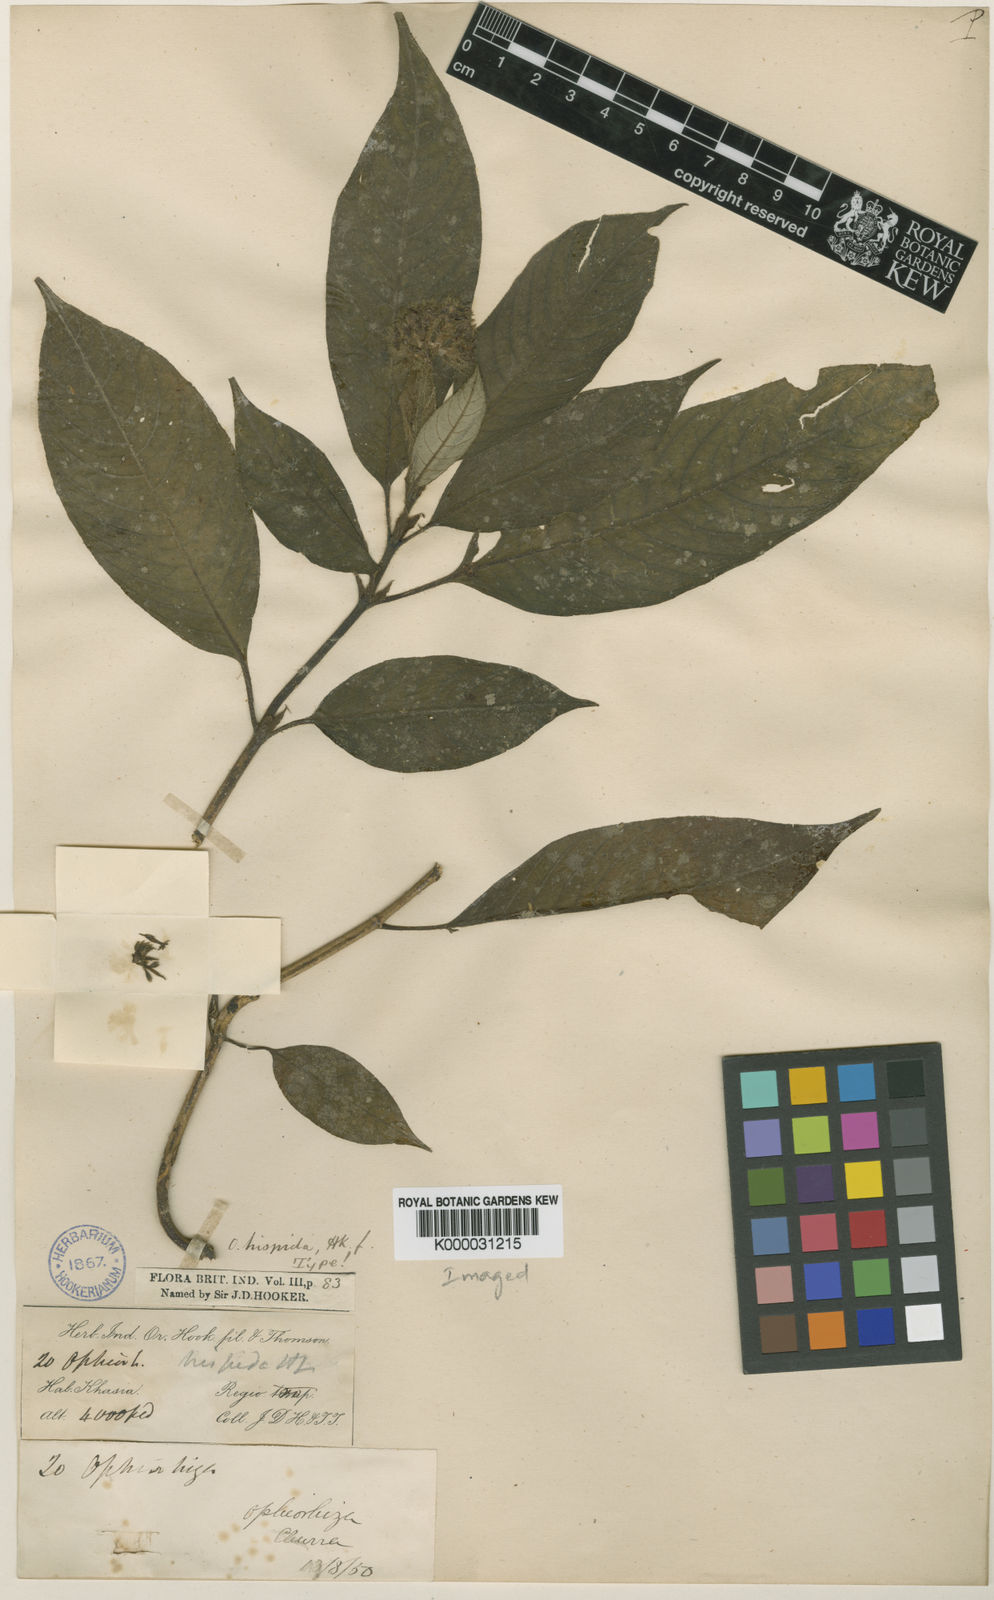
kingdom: Plantae
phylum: Tracheophyta
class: Magnoliopsida
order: Gentianales
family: Rubiaceae
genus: Ophiorrhiza
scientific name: Ophiorrhiza hispida
